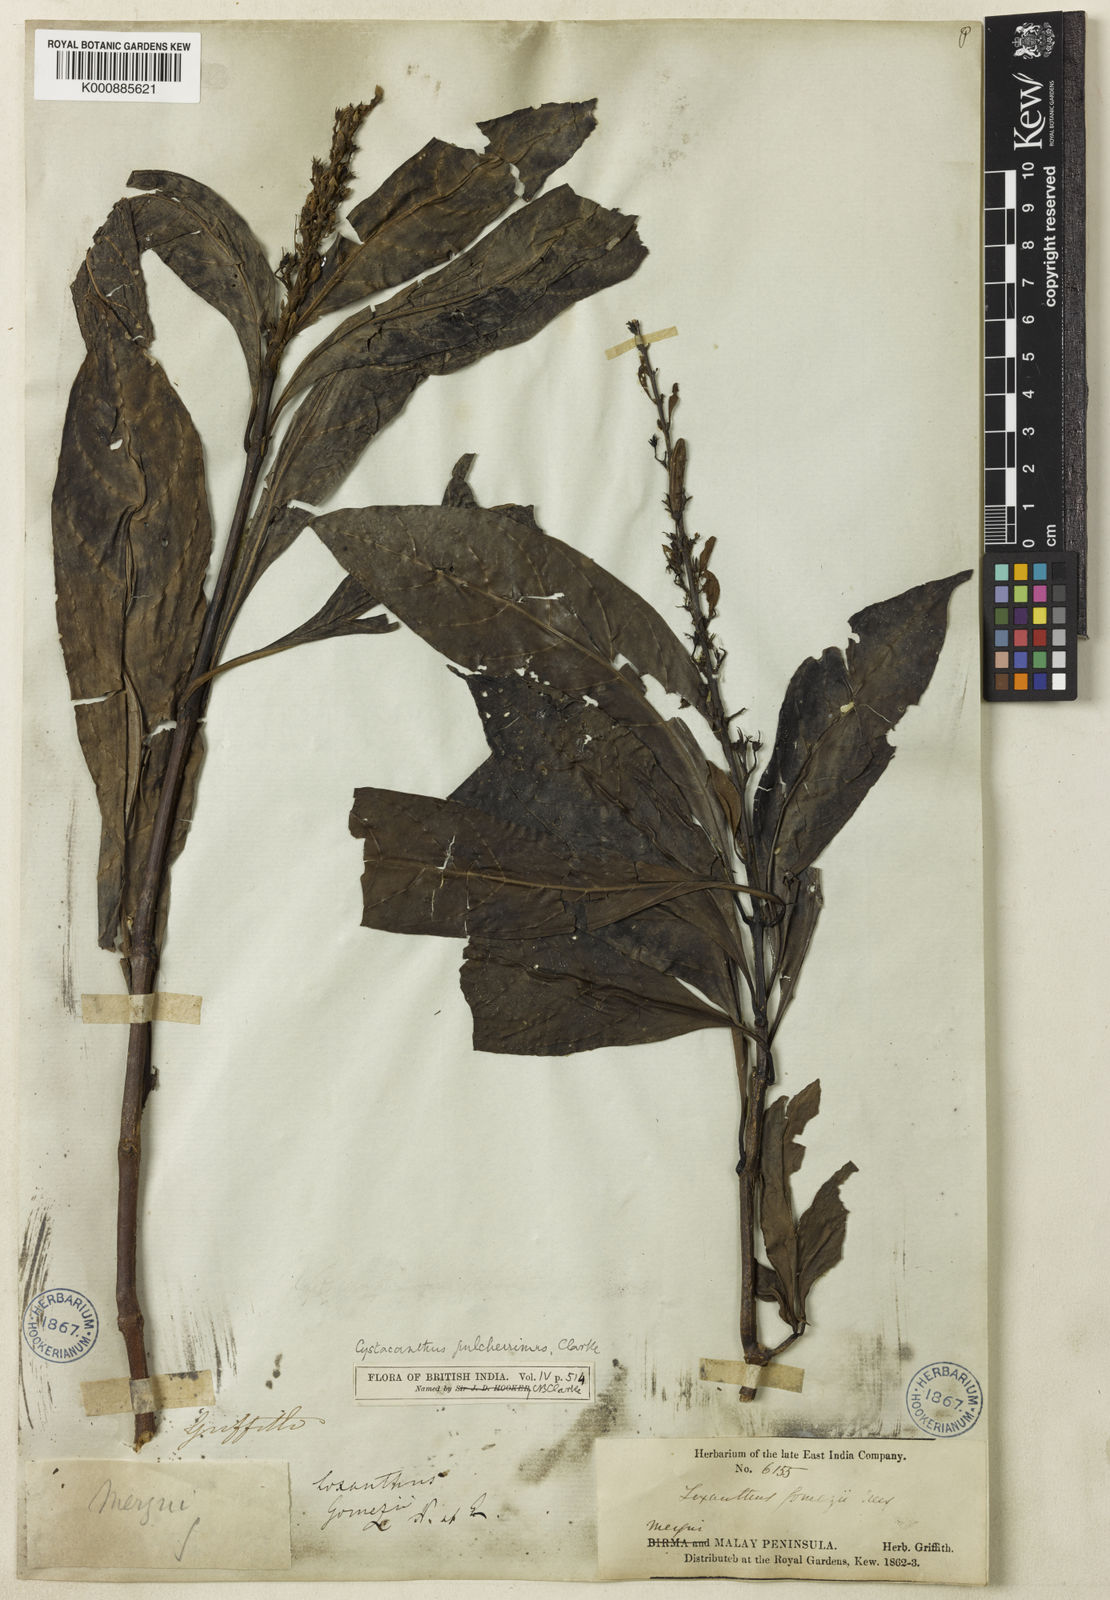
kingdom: Plantae
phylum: Tracheophyta
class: Magnoliopsida
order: Lamiales
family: Acanthaceae
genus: Phlogacanthus
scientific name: Phlogacanthus pulcherrimus
